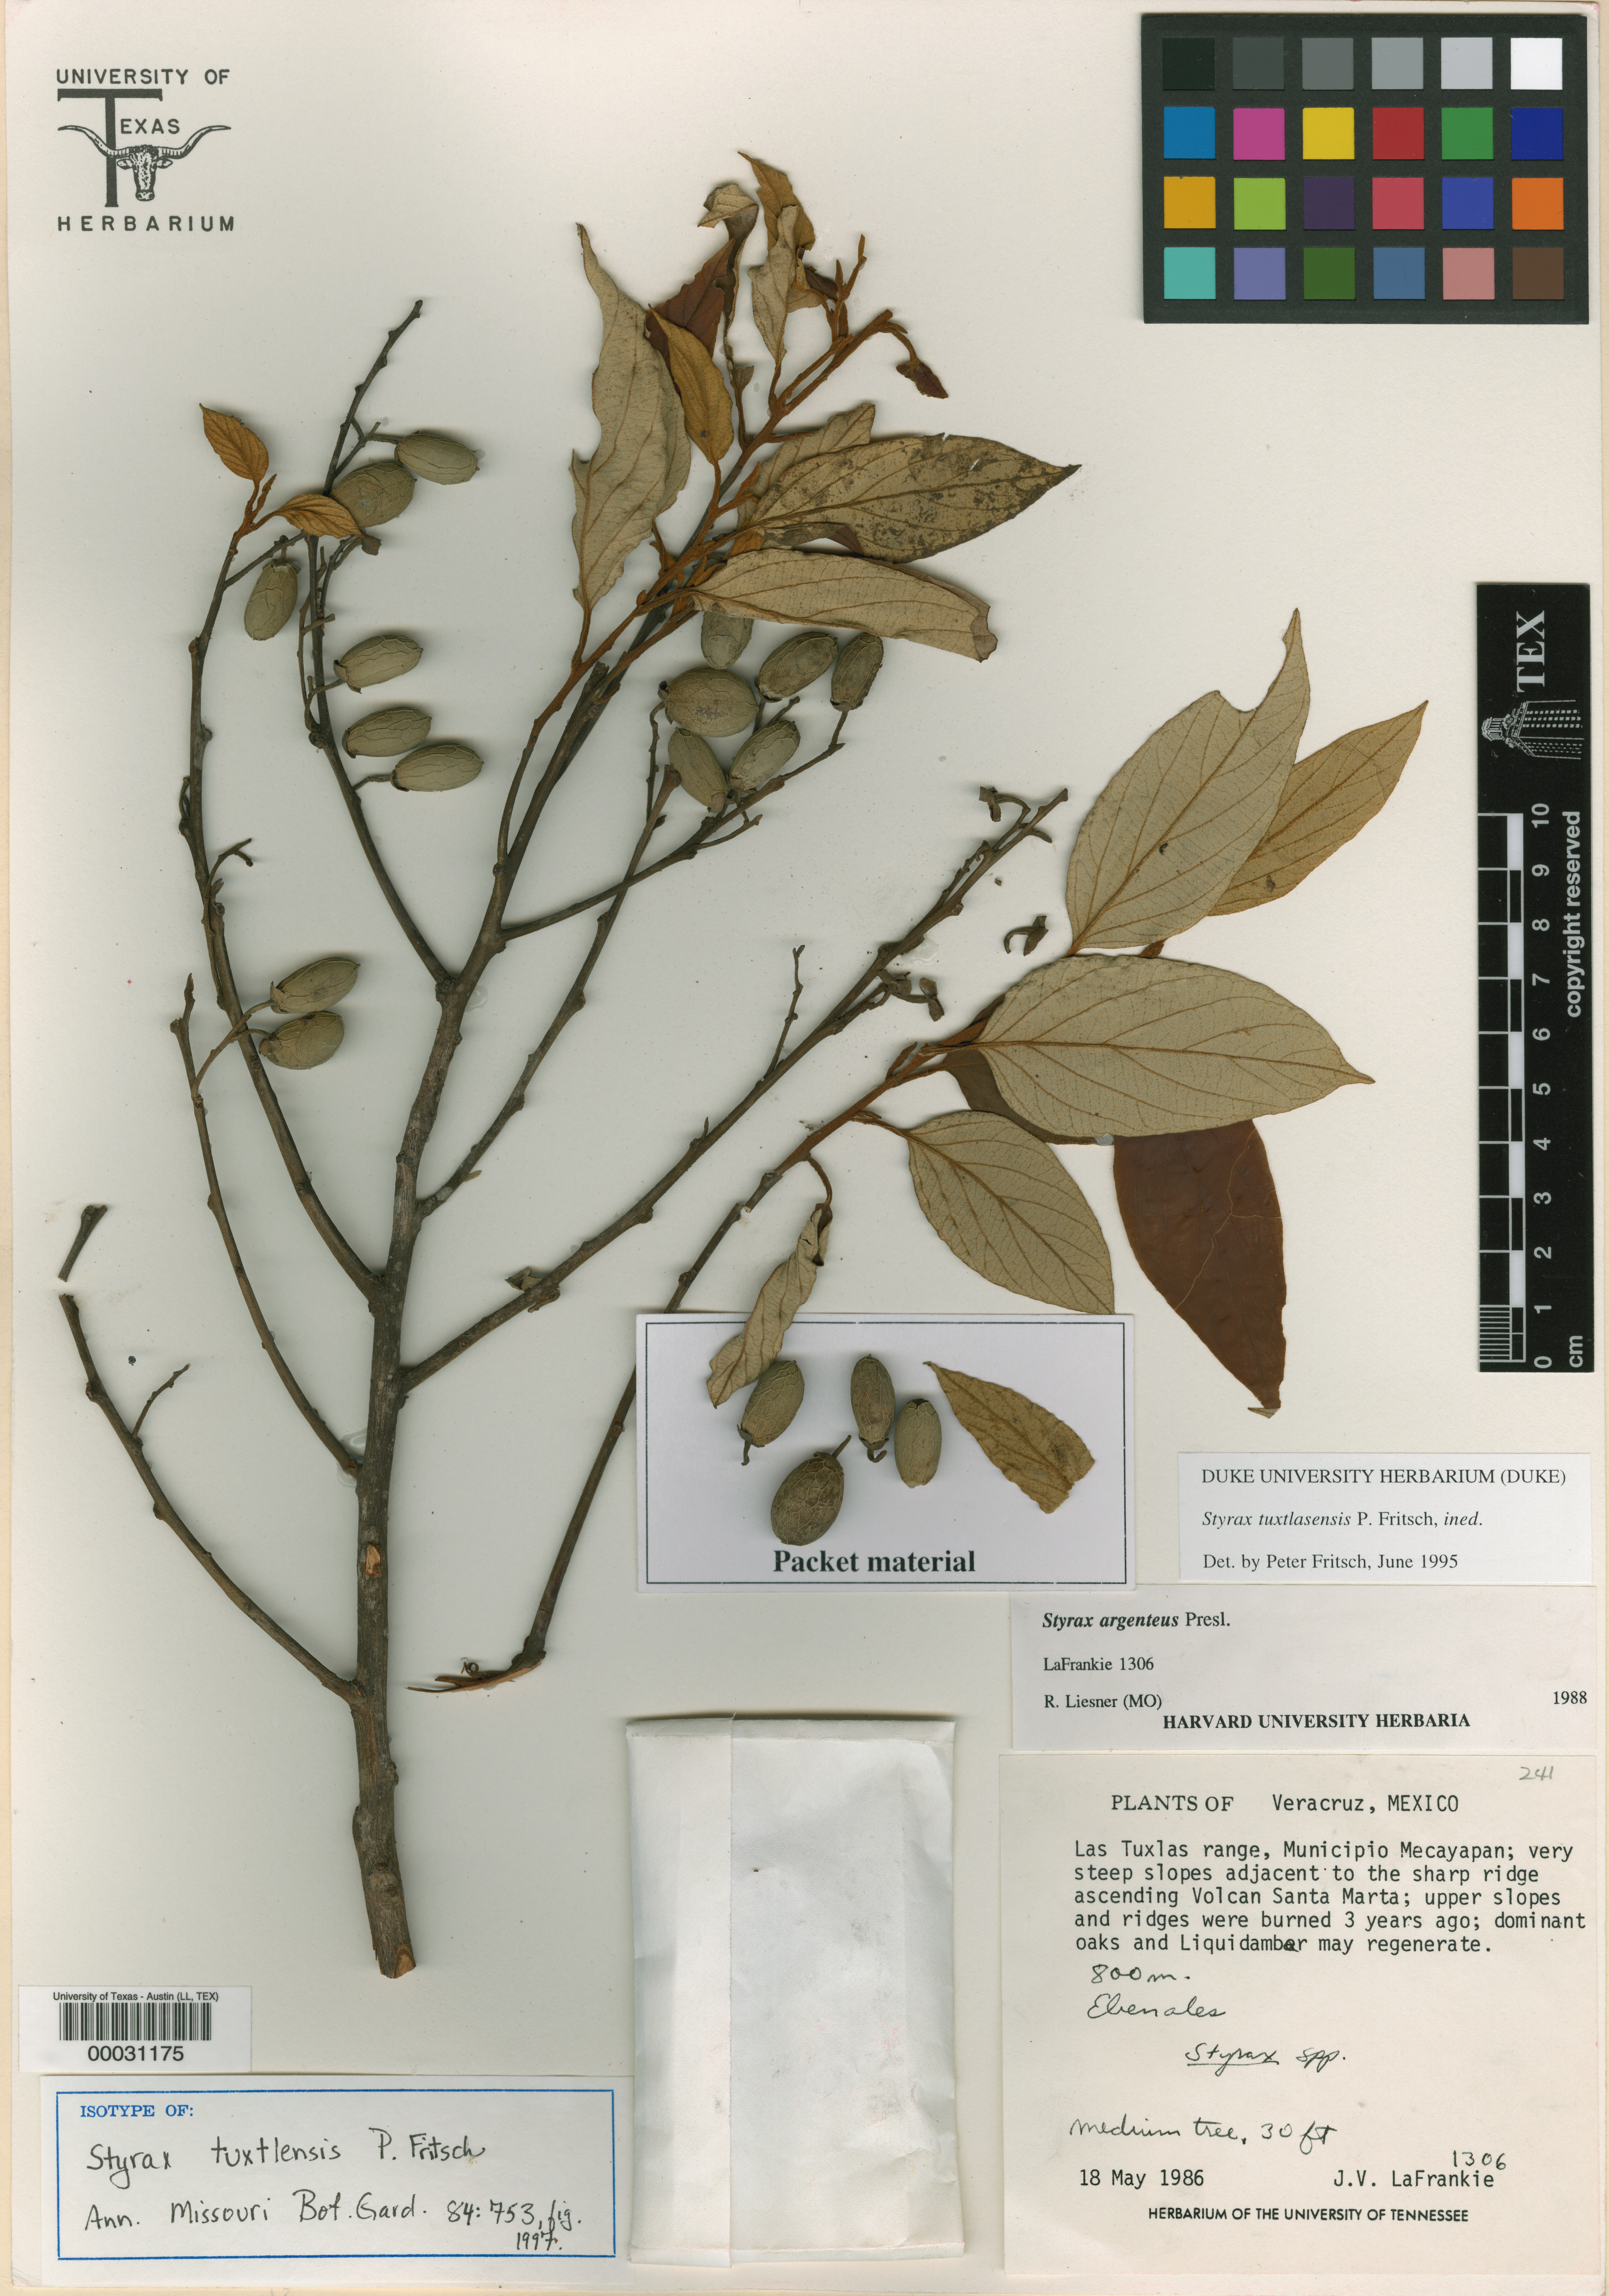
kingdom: Plantae
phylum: Tracheophyta
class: Magnoliopsida
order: Malpighiales
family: Hypericaceae
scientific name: Hypericaceae
